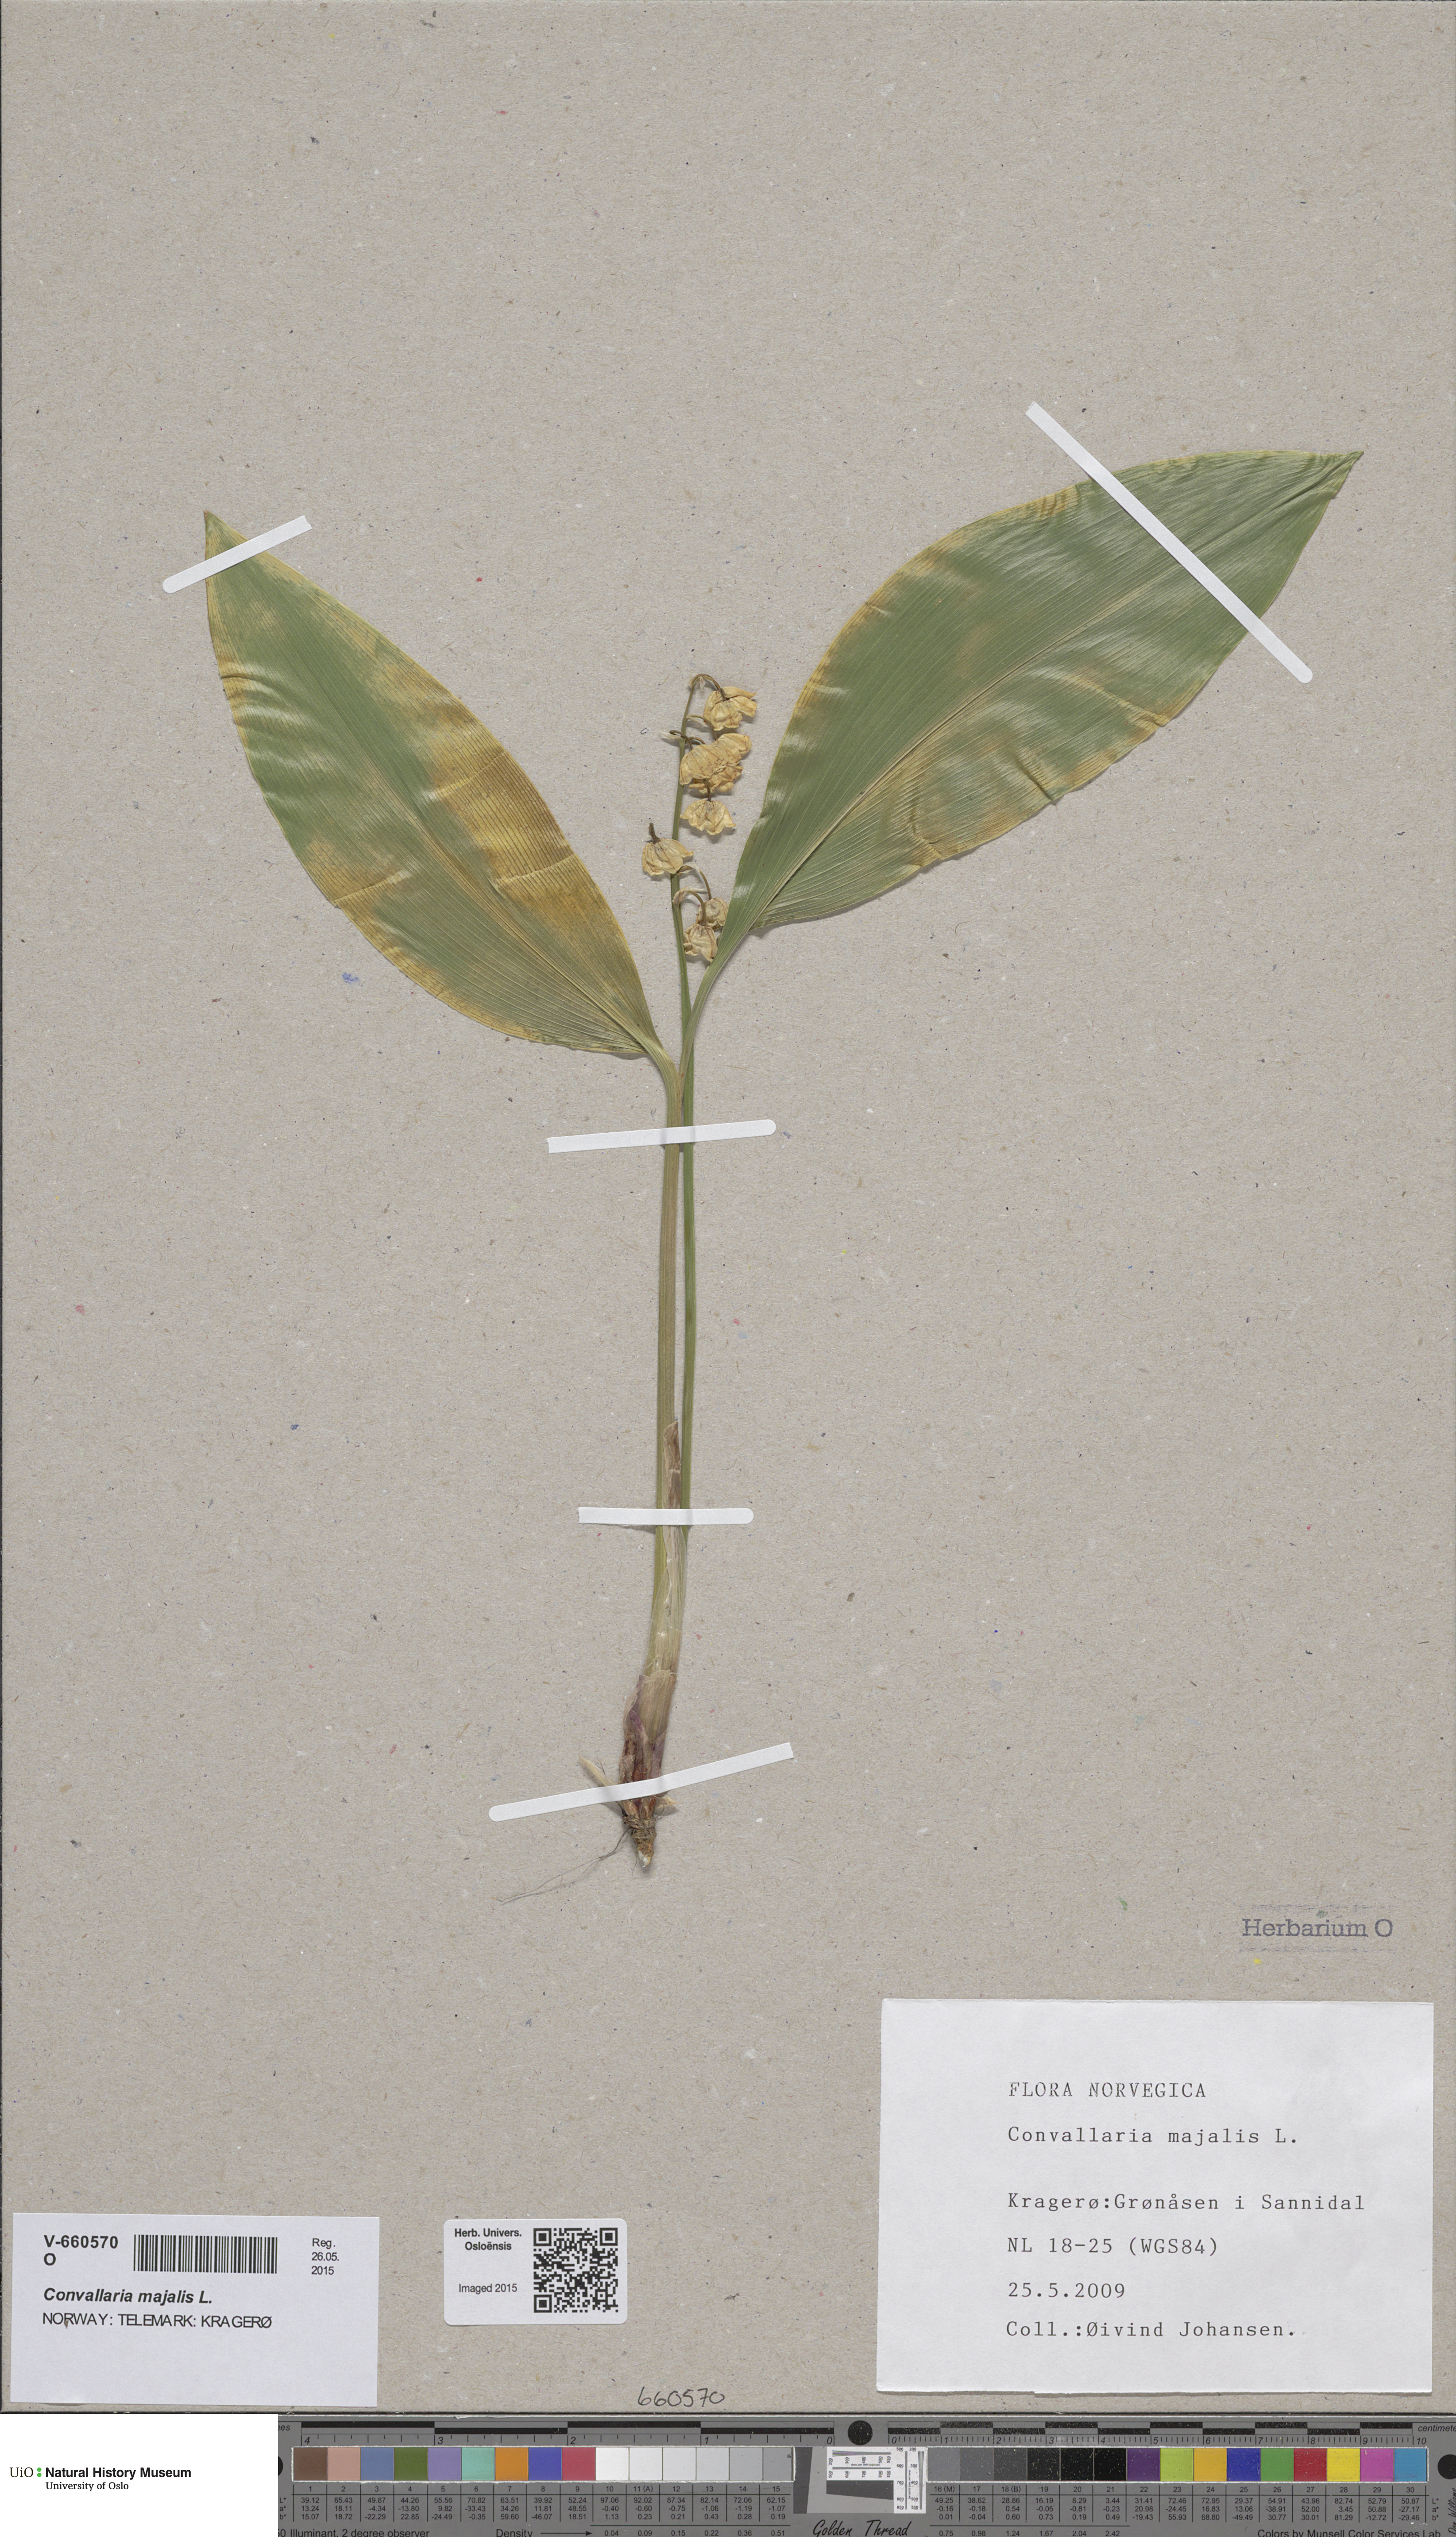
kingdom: Plantae
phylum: Tracheophyta
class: Liliopsida
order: Asparagales
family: Asparagaceae
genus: Convallaria
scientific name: Convallaria majalis
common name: Lily-of-the-valley
